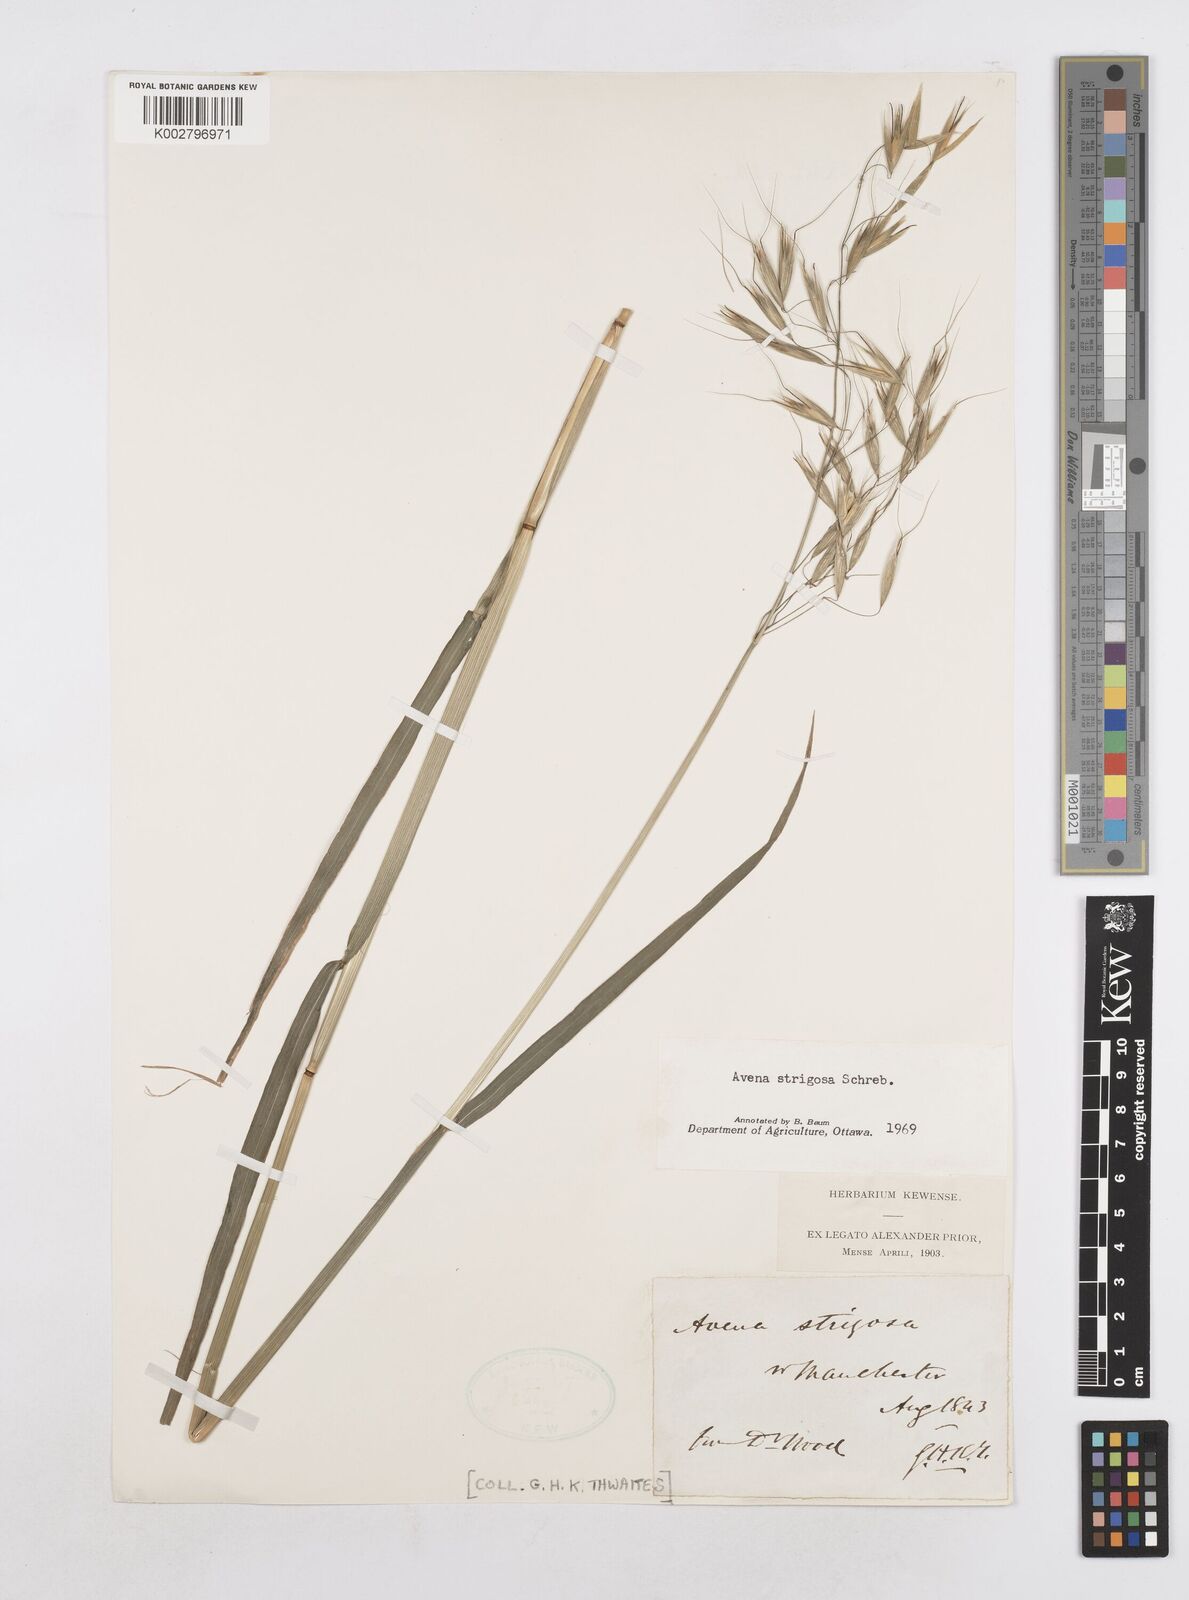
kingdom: Plantae
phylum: Tracheophyta
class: Liliopsida
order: Poales
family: Poaceae
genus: Trisetum
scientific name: Trisetum alpestre
